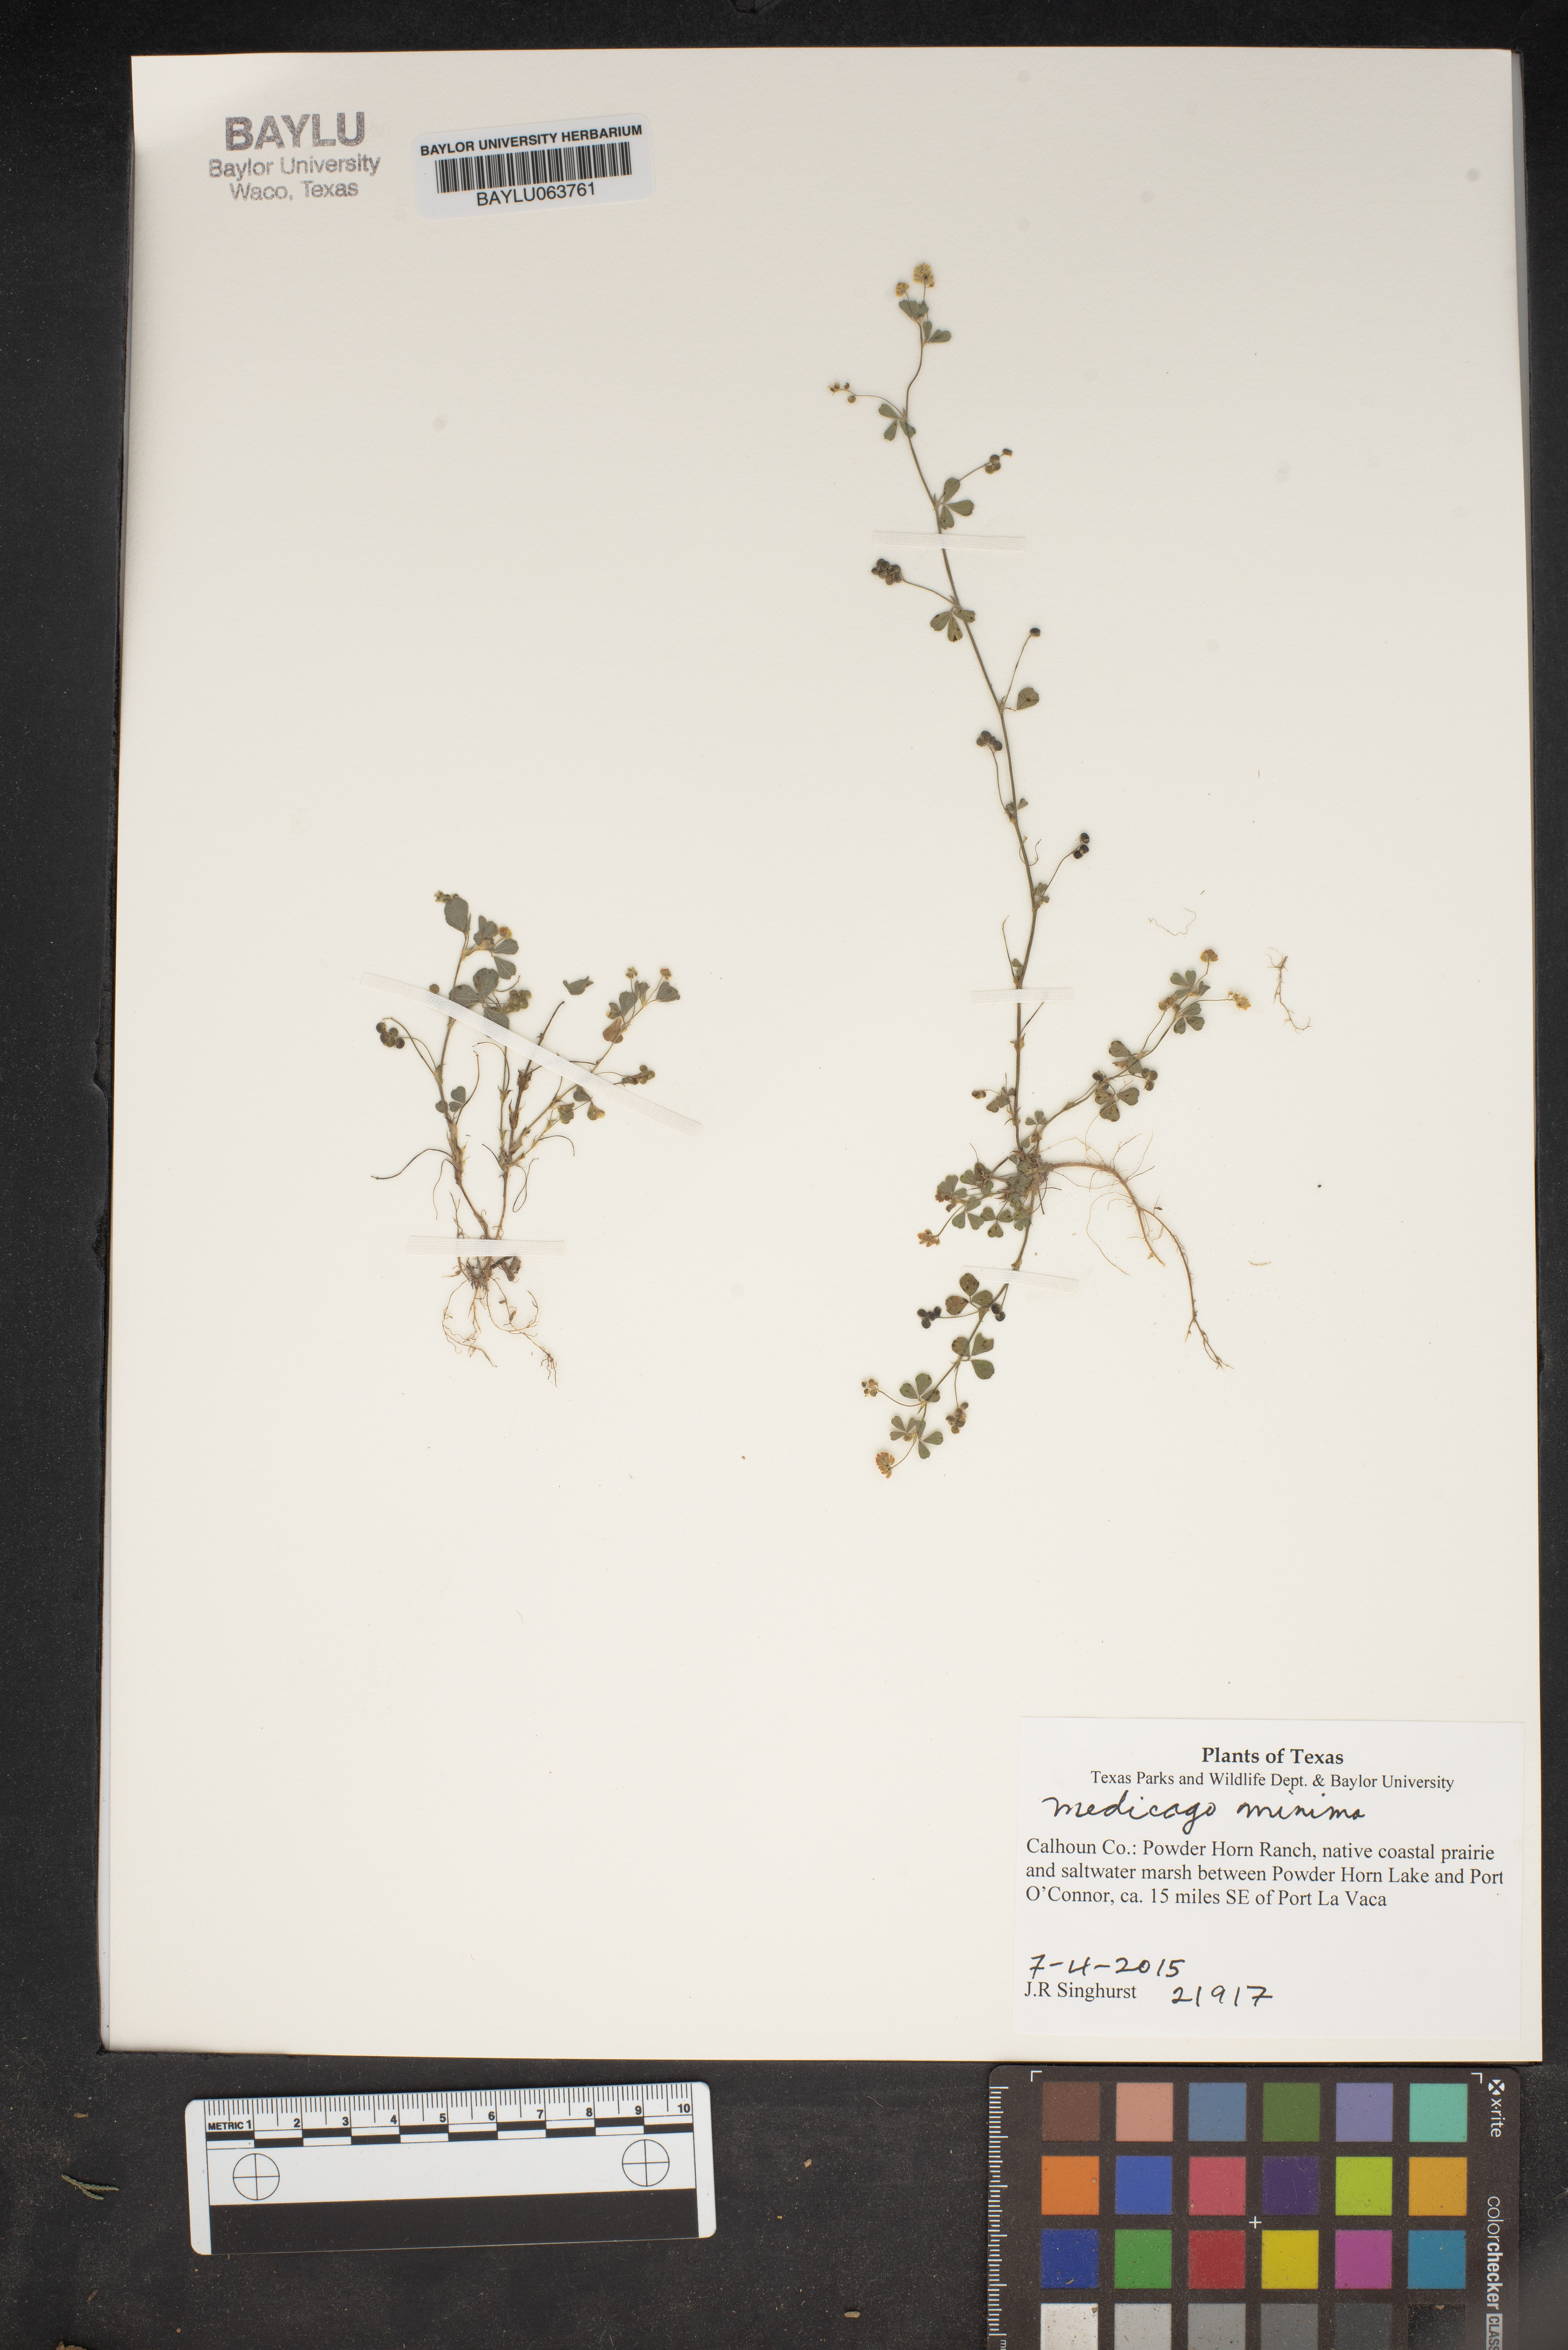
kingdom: Plantae
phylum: Tracheophyta
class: Magnoliopsida
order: Fabales
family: Fabaceae
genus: Medicago
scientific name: Medicago minima
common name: Little bur-clover
